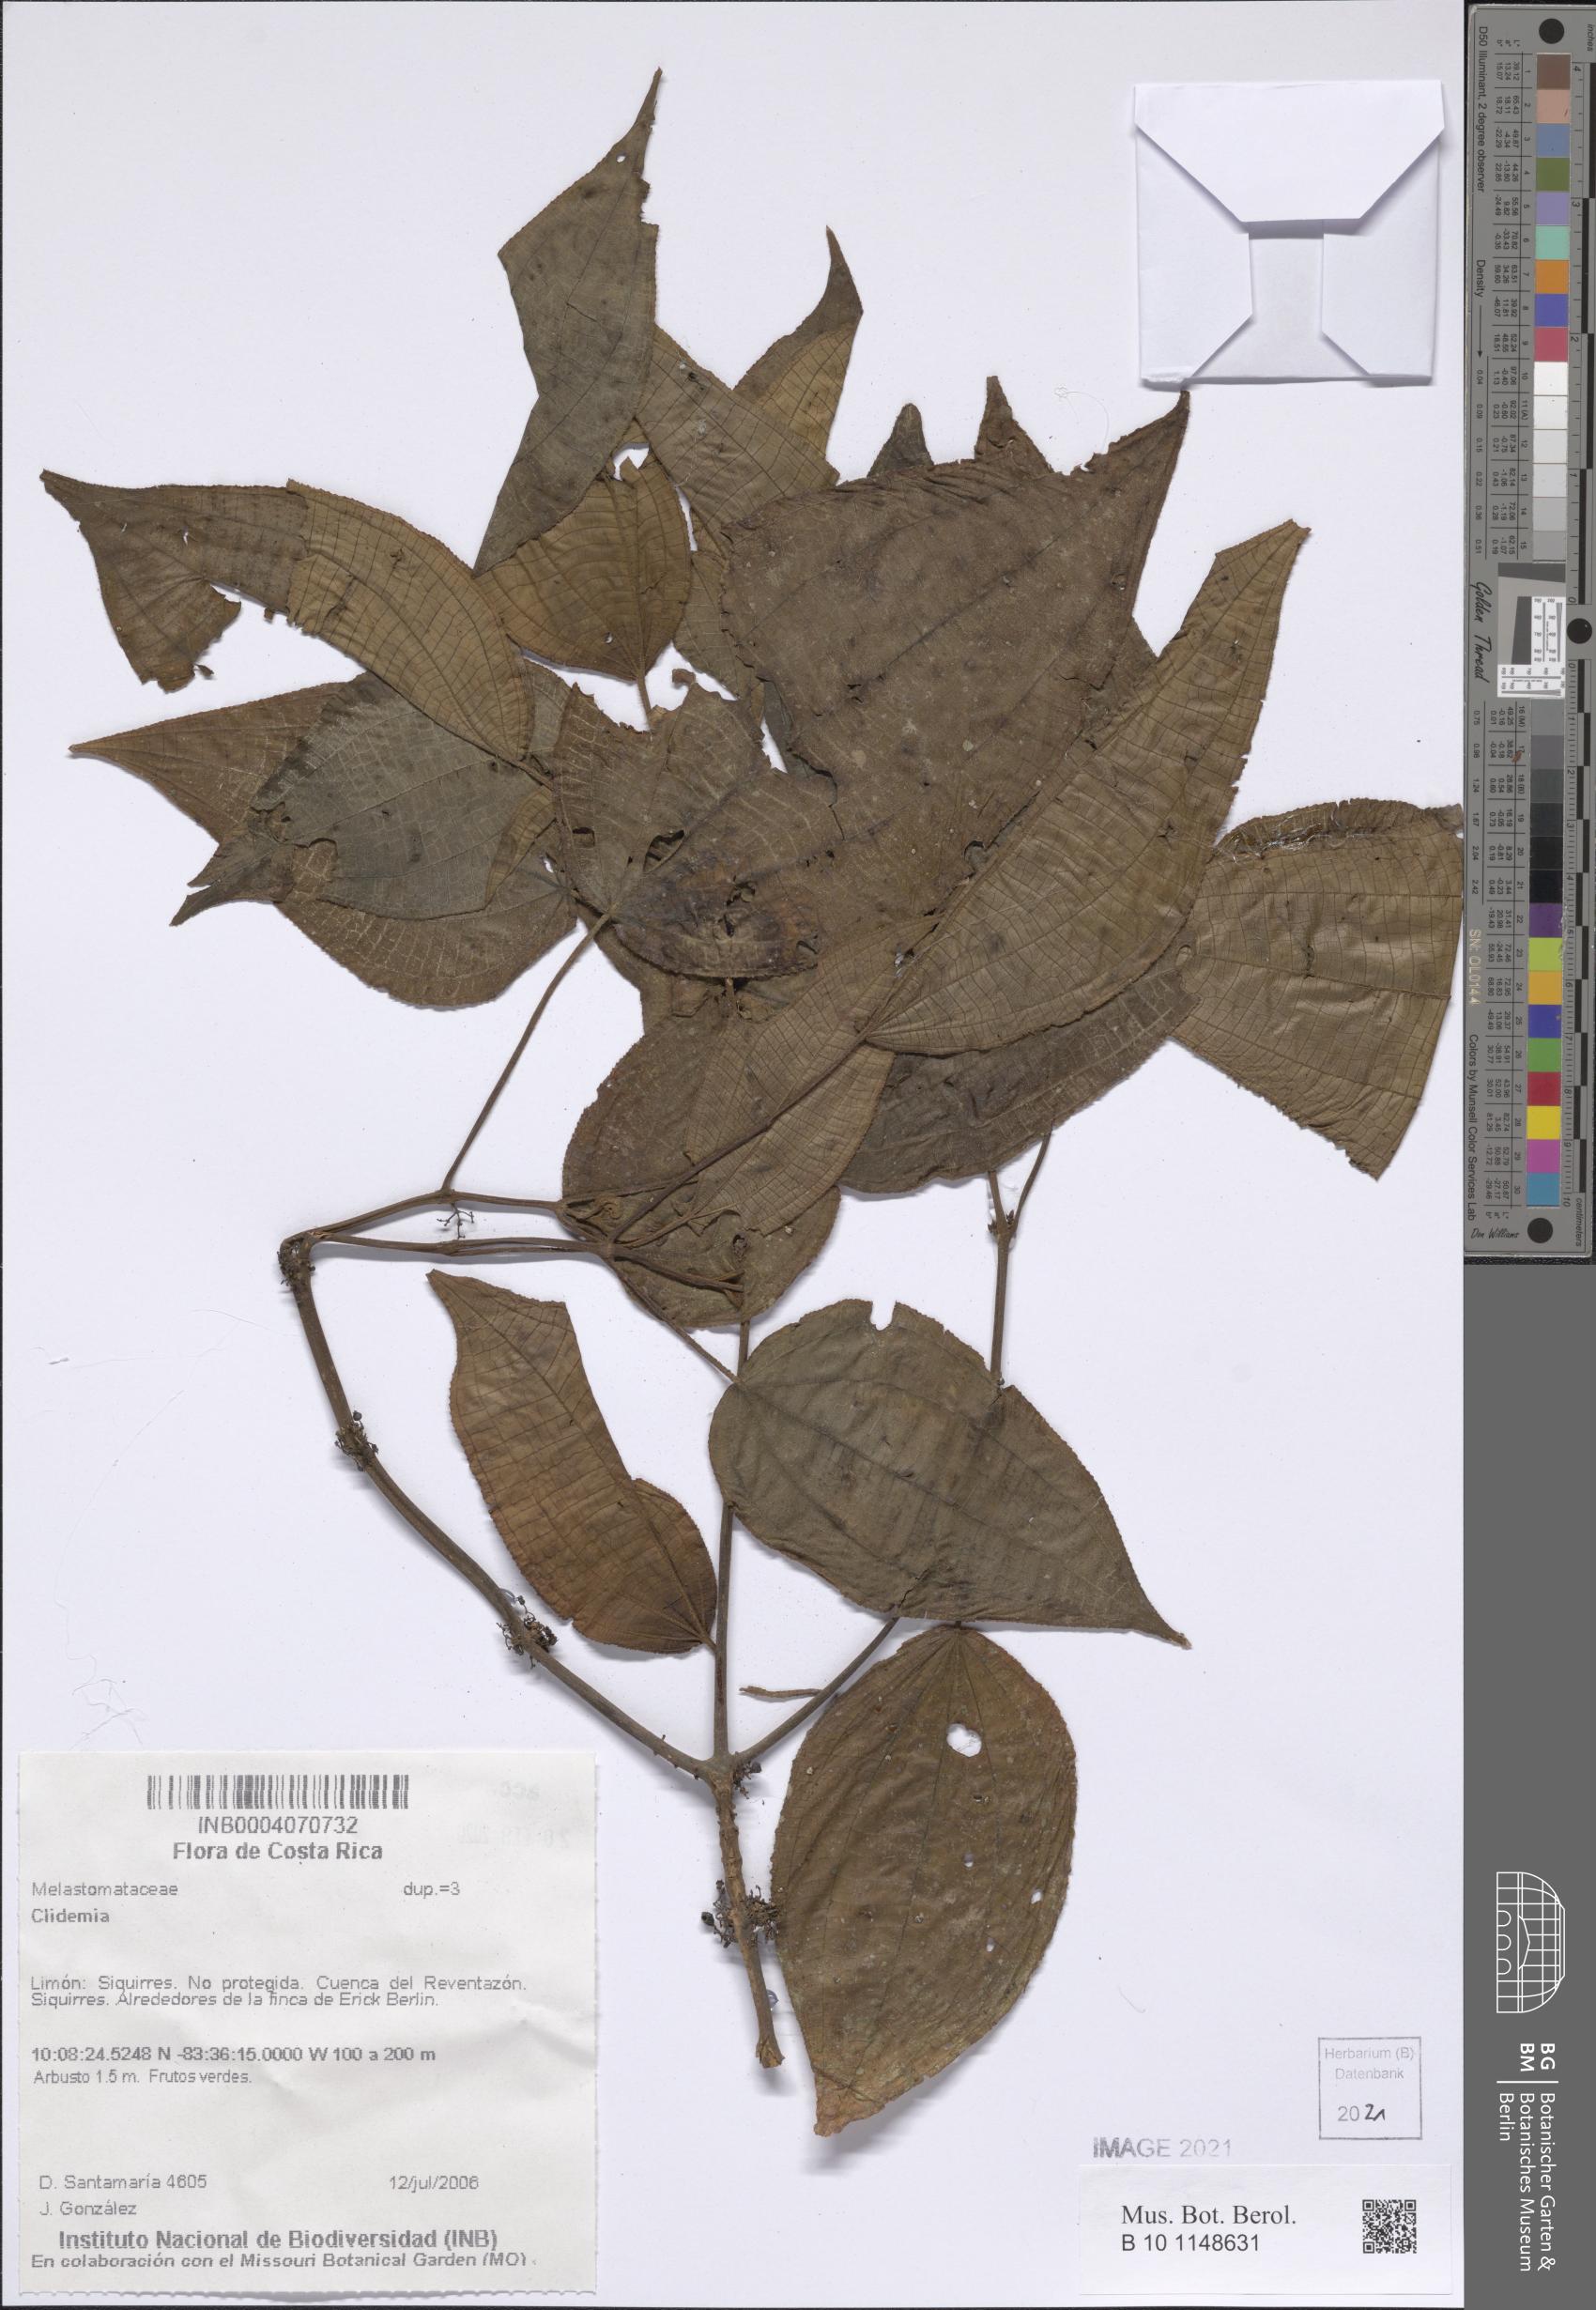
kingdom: Plantae
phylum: Tracheophyta
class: Magnoliopsida
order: Myrtales
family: Melastomataceae
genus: Miconia
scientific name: Miconia
